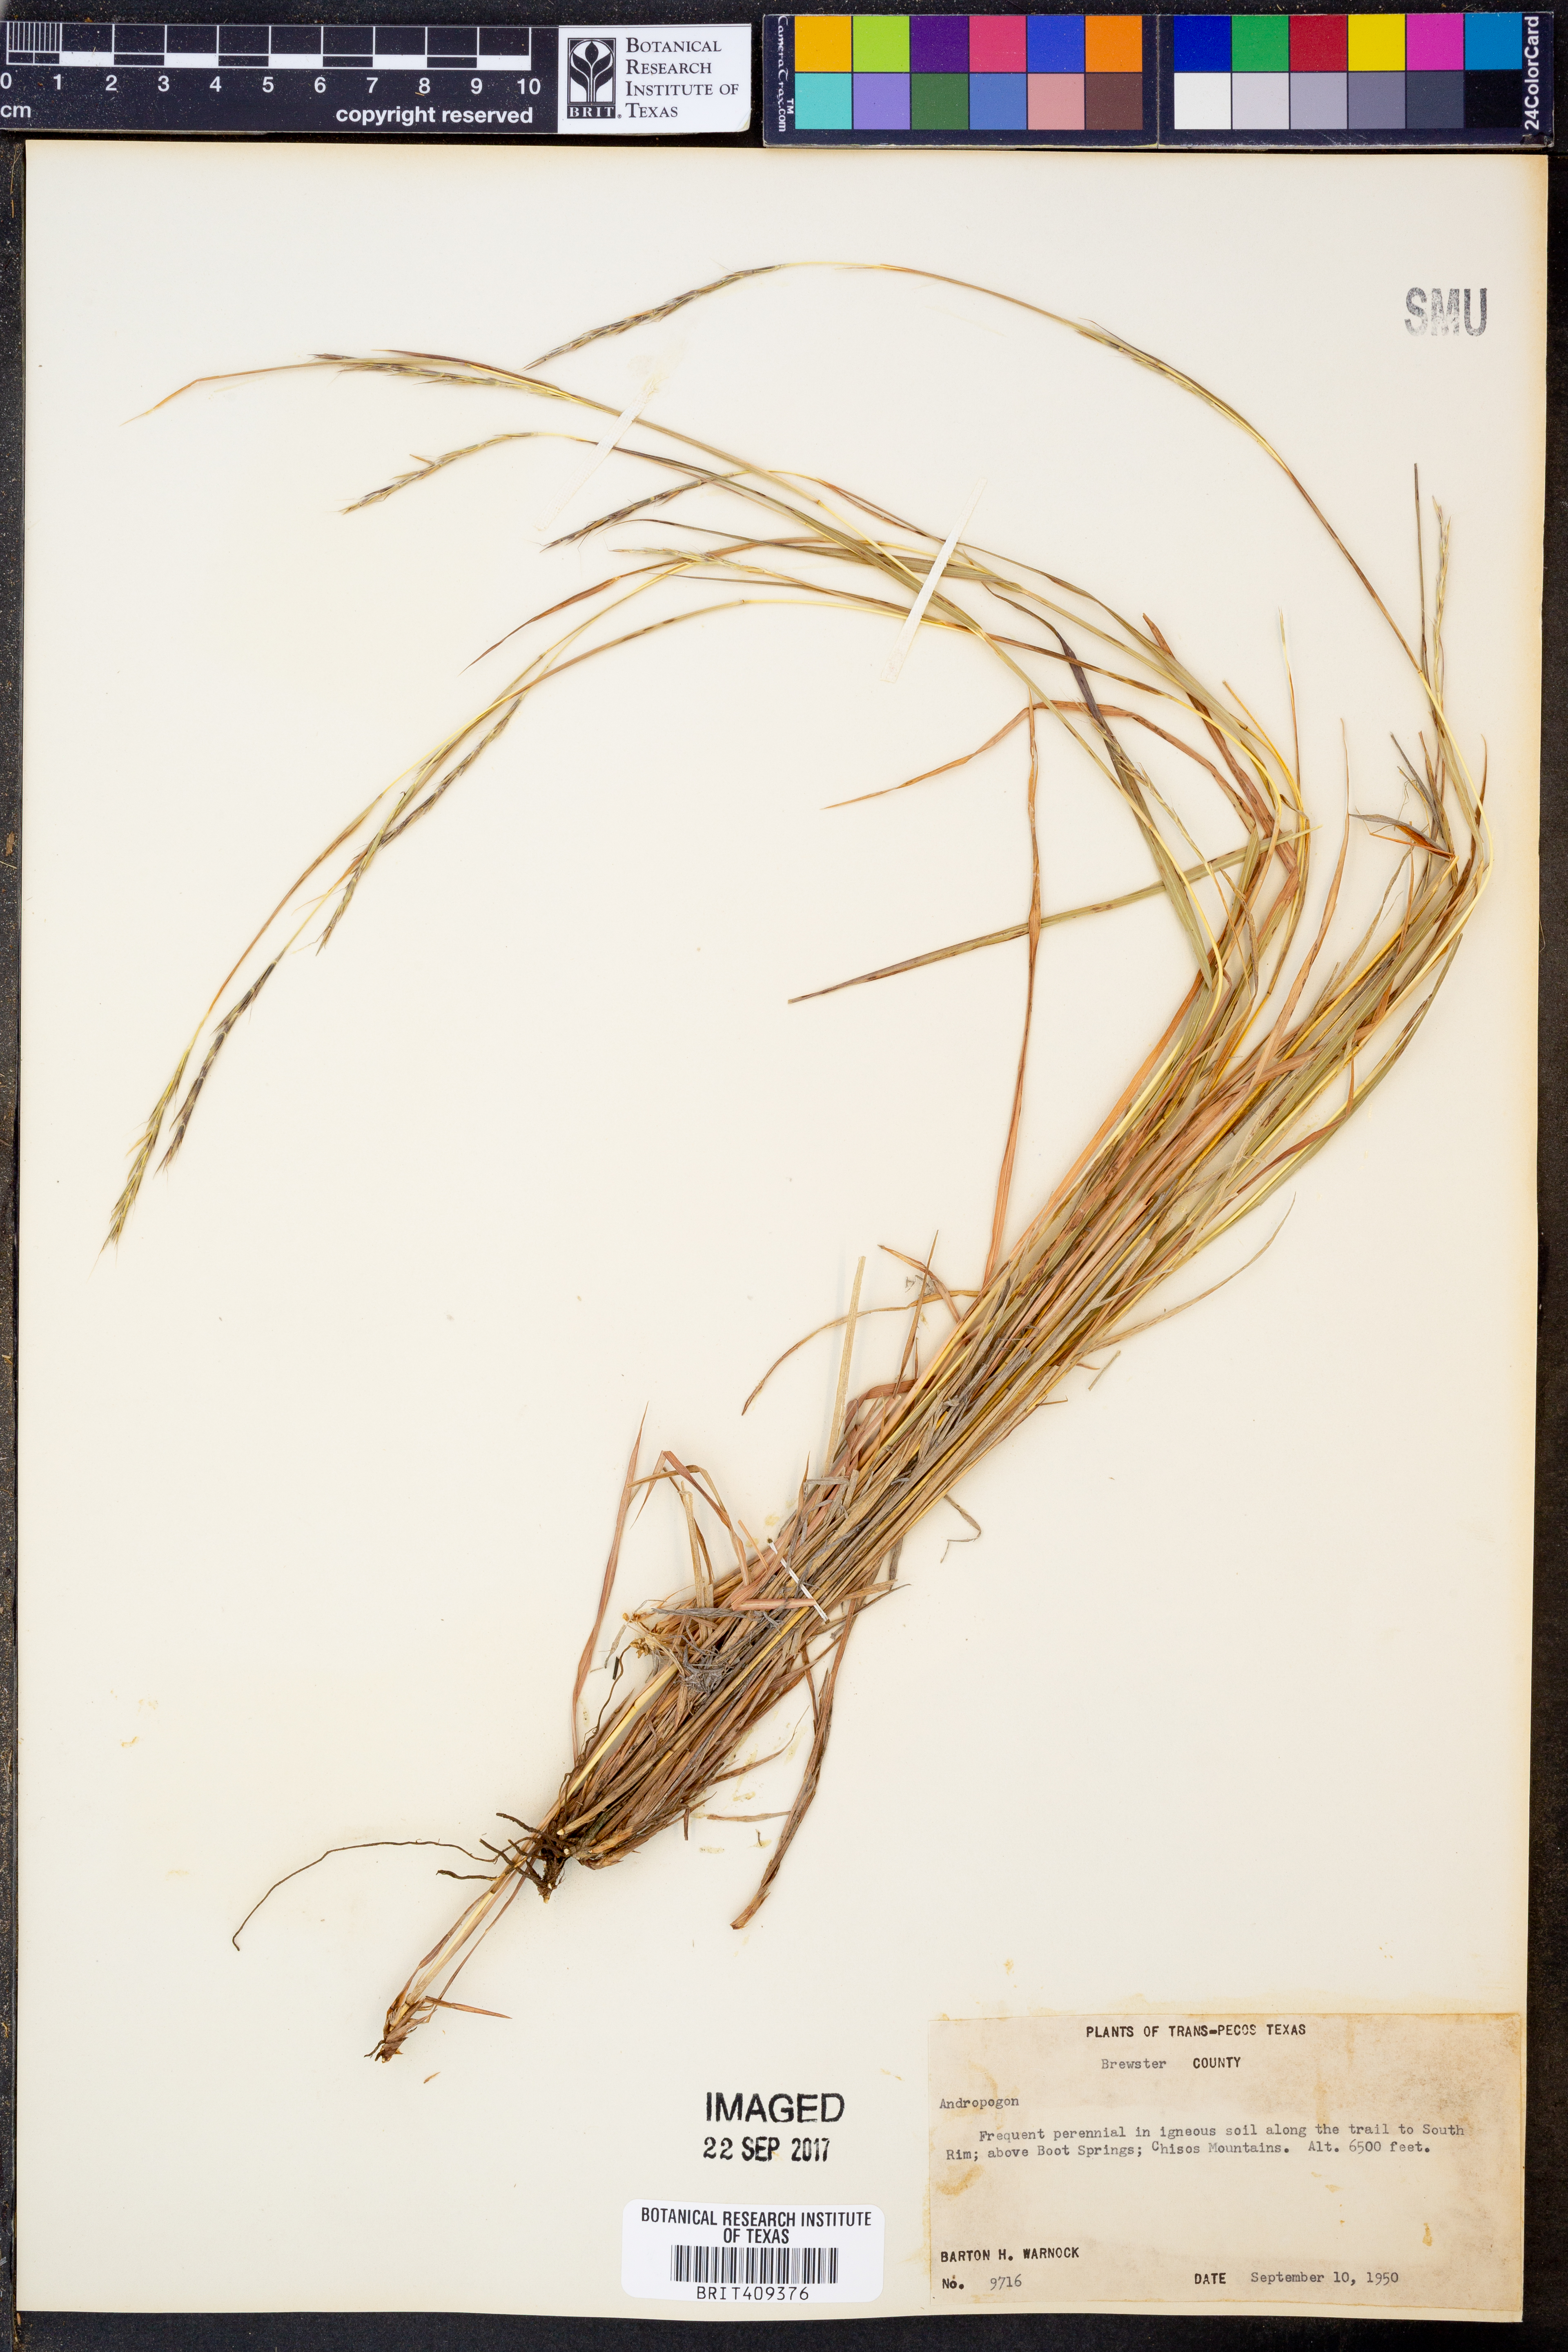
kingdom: Plantae
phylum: Tracheophyta
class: Liliopsida
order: Poales
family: Poaceae
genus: Andropogon
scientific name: Andropogon
